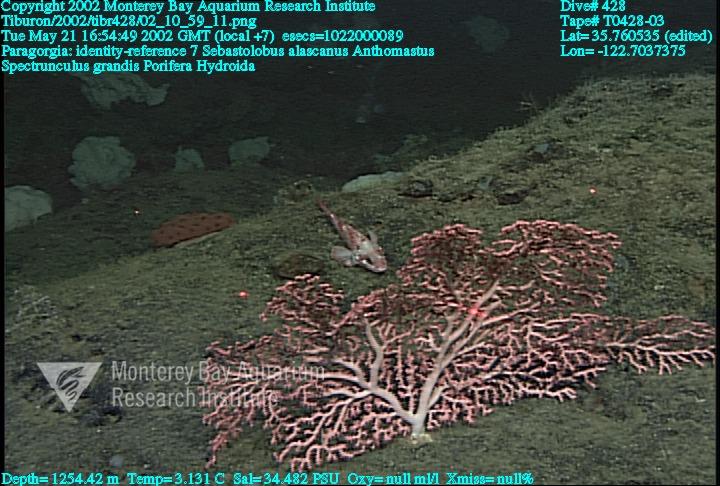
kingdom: Animalia
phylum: Porifera
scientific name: Porifera
